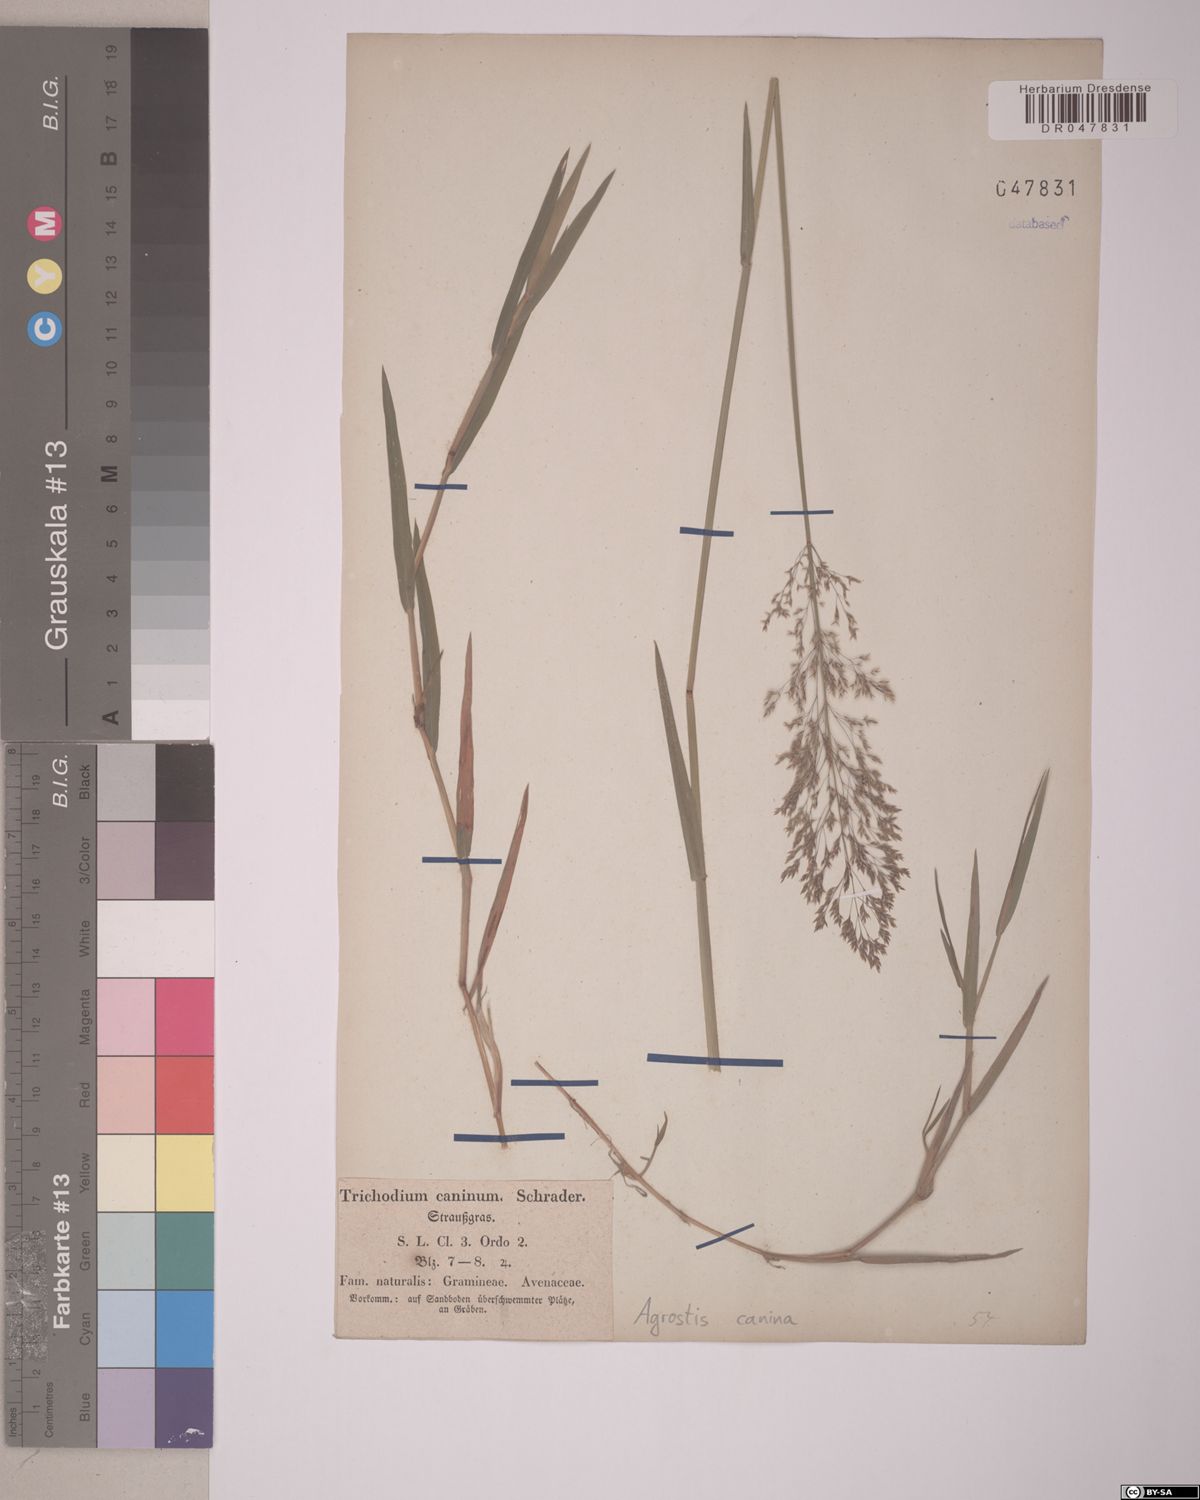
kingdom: Plantae
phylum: Tracheophyta
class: Liliopsida
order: Poales
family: Poaceae
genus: Agrostis
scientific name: Agrostis canina
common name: Velvet bent
